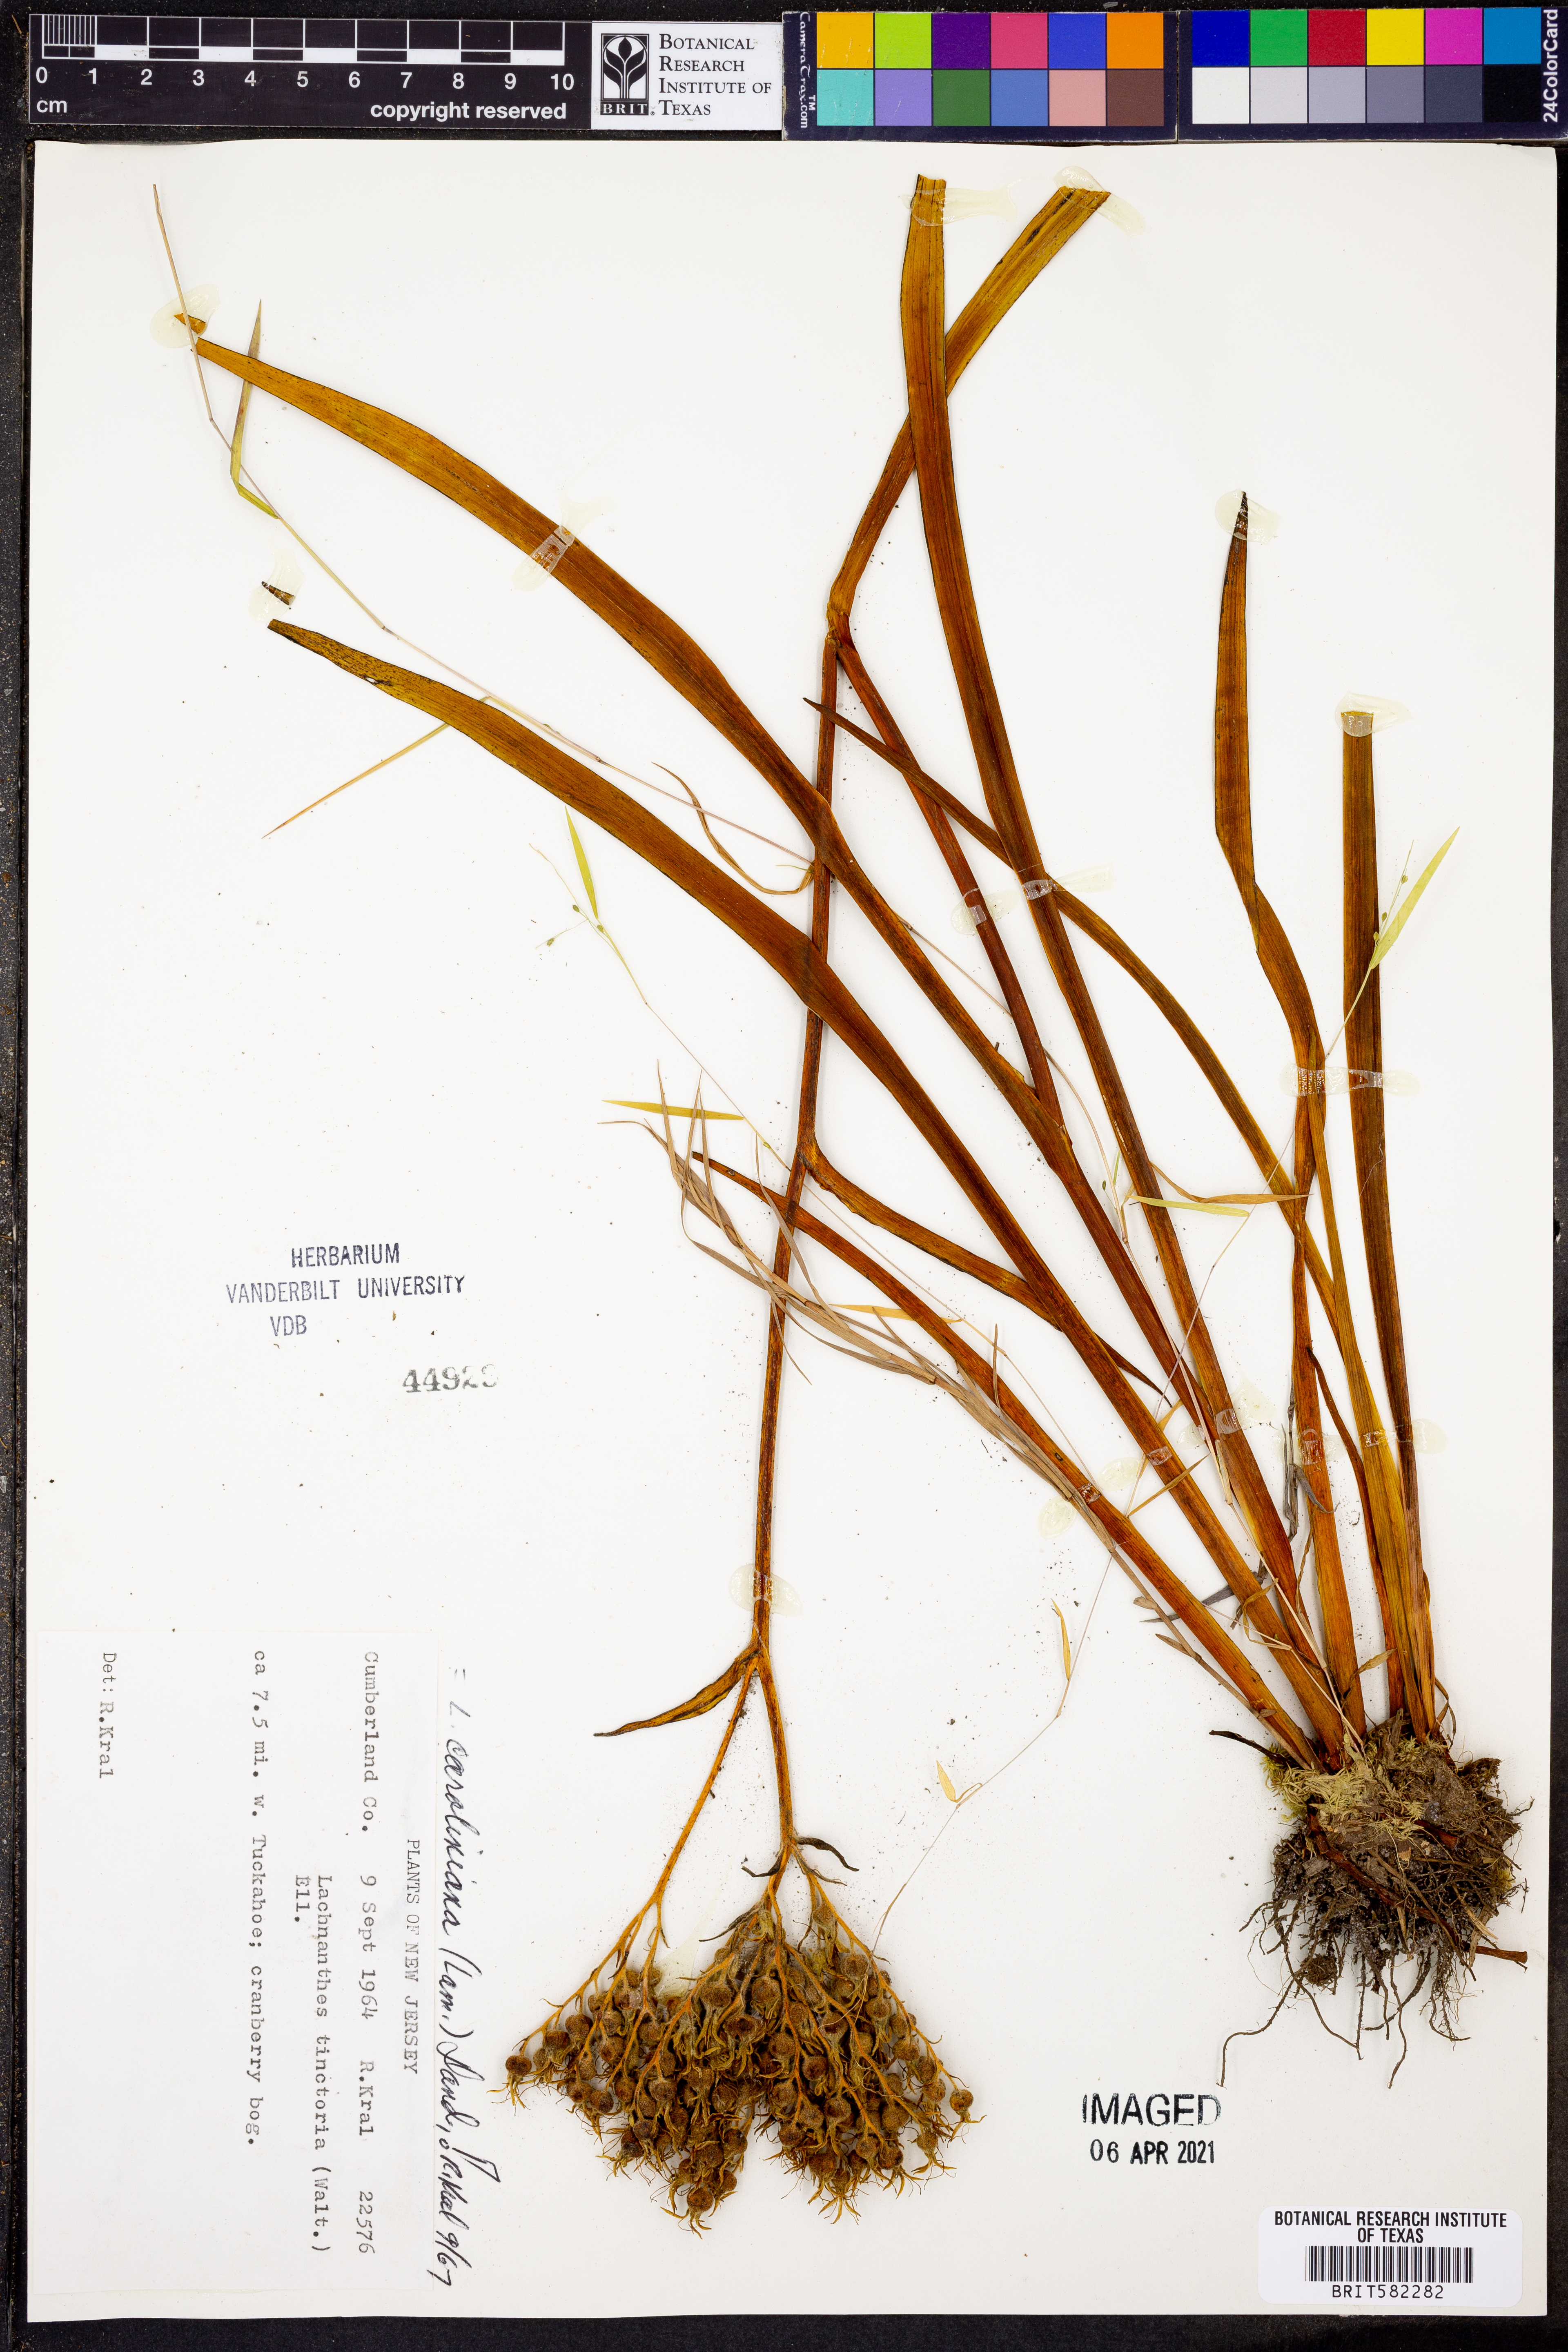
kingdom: Plantae
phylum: Tracheophyta
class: Liliopsida
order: Commelinales
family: Haemodoraceae
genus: Lachnanthes
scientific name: Lachnanthes caroliniana
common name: Carolina redroot
